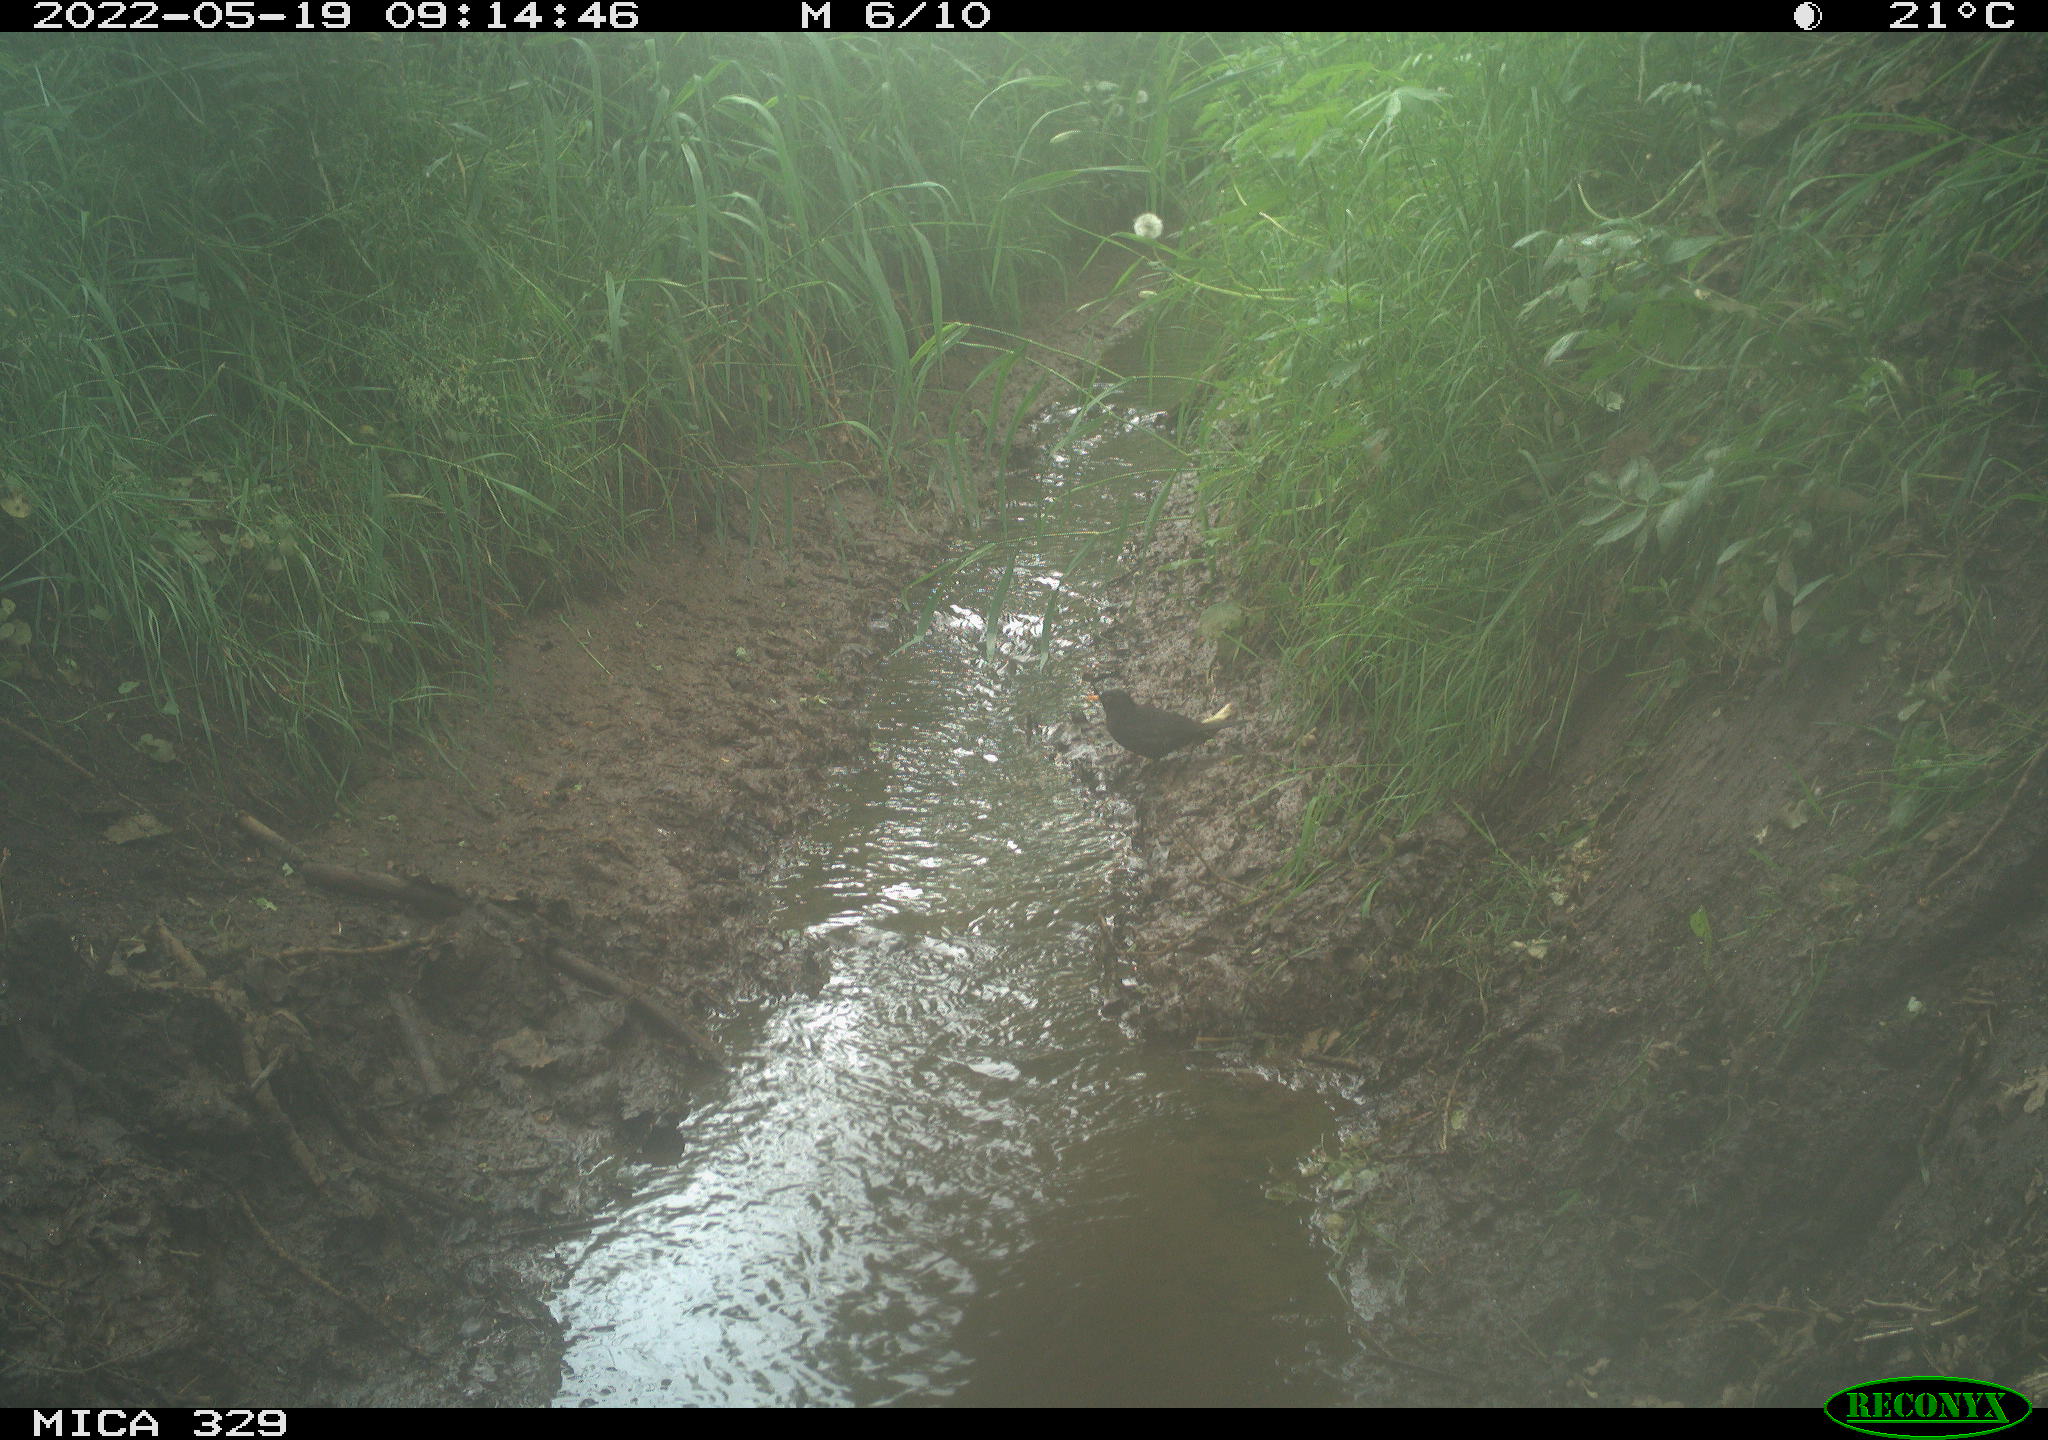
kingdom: Animalia
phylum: Chordata
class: Aves
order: Passeriformes
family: Turdidae
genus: Turdus
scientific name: Turdus merula
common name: Common blackbird
